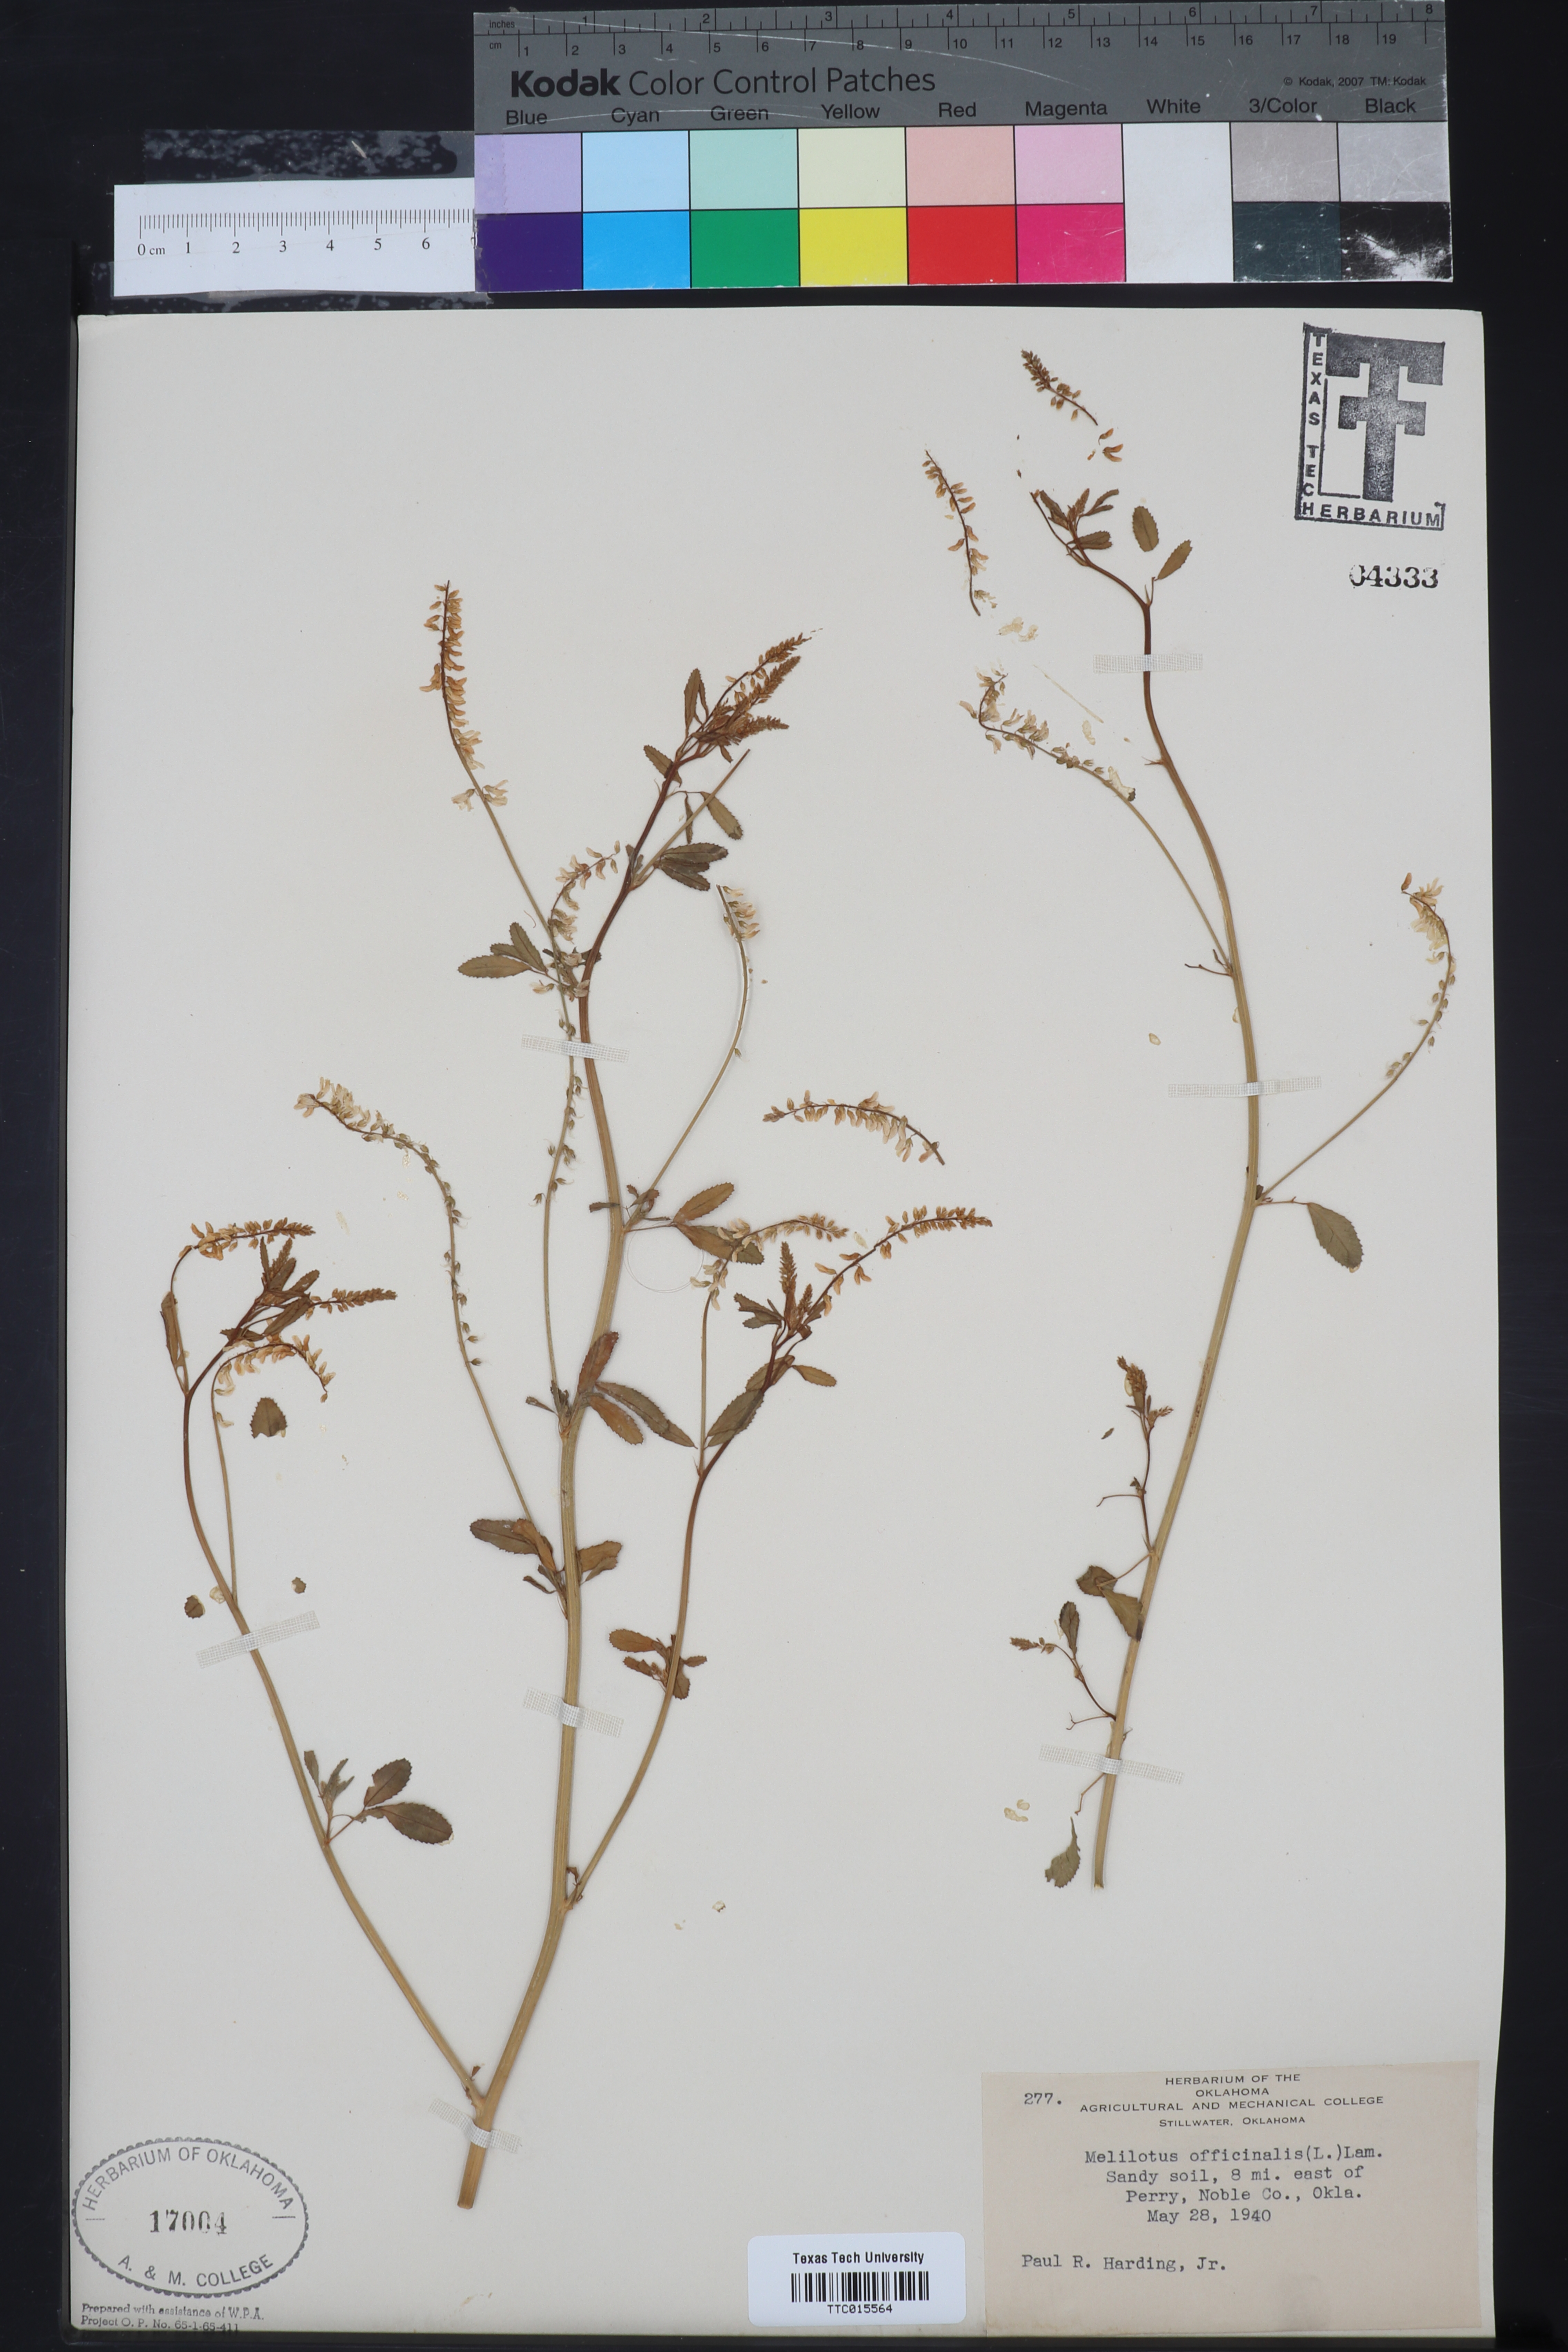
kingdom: Plantae
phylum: Tracheophyta
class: Magnoliopsida
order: Fabales
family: Fabaceae
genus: Melilotus
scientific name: Melilotus officinalis
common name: Sweetclover
